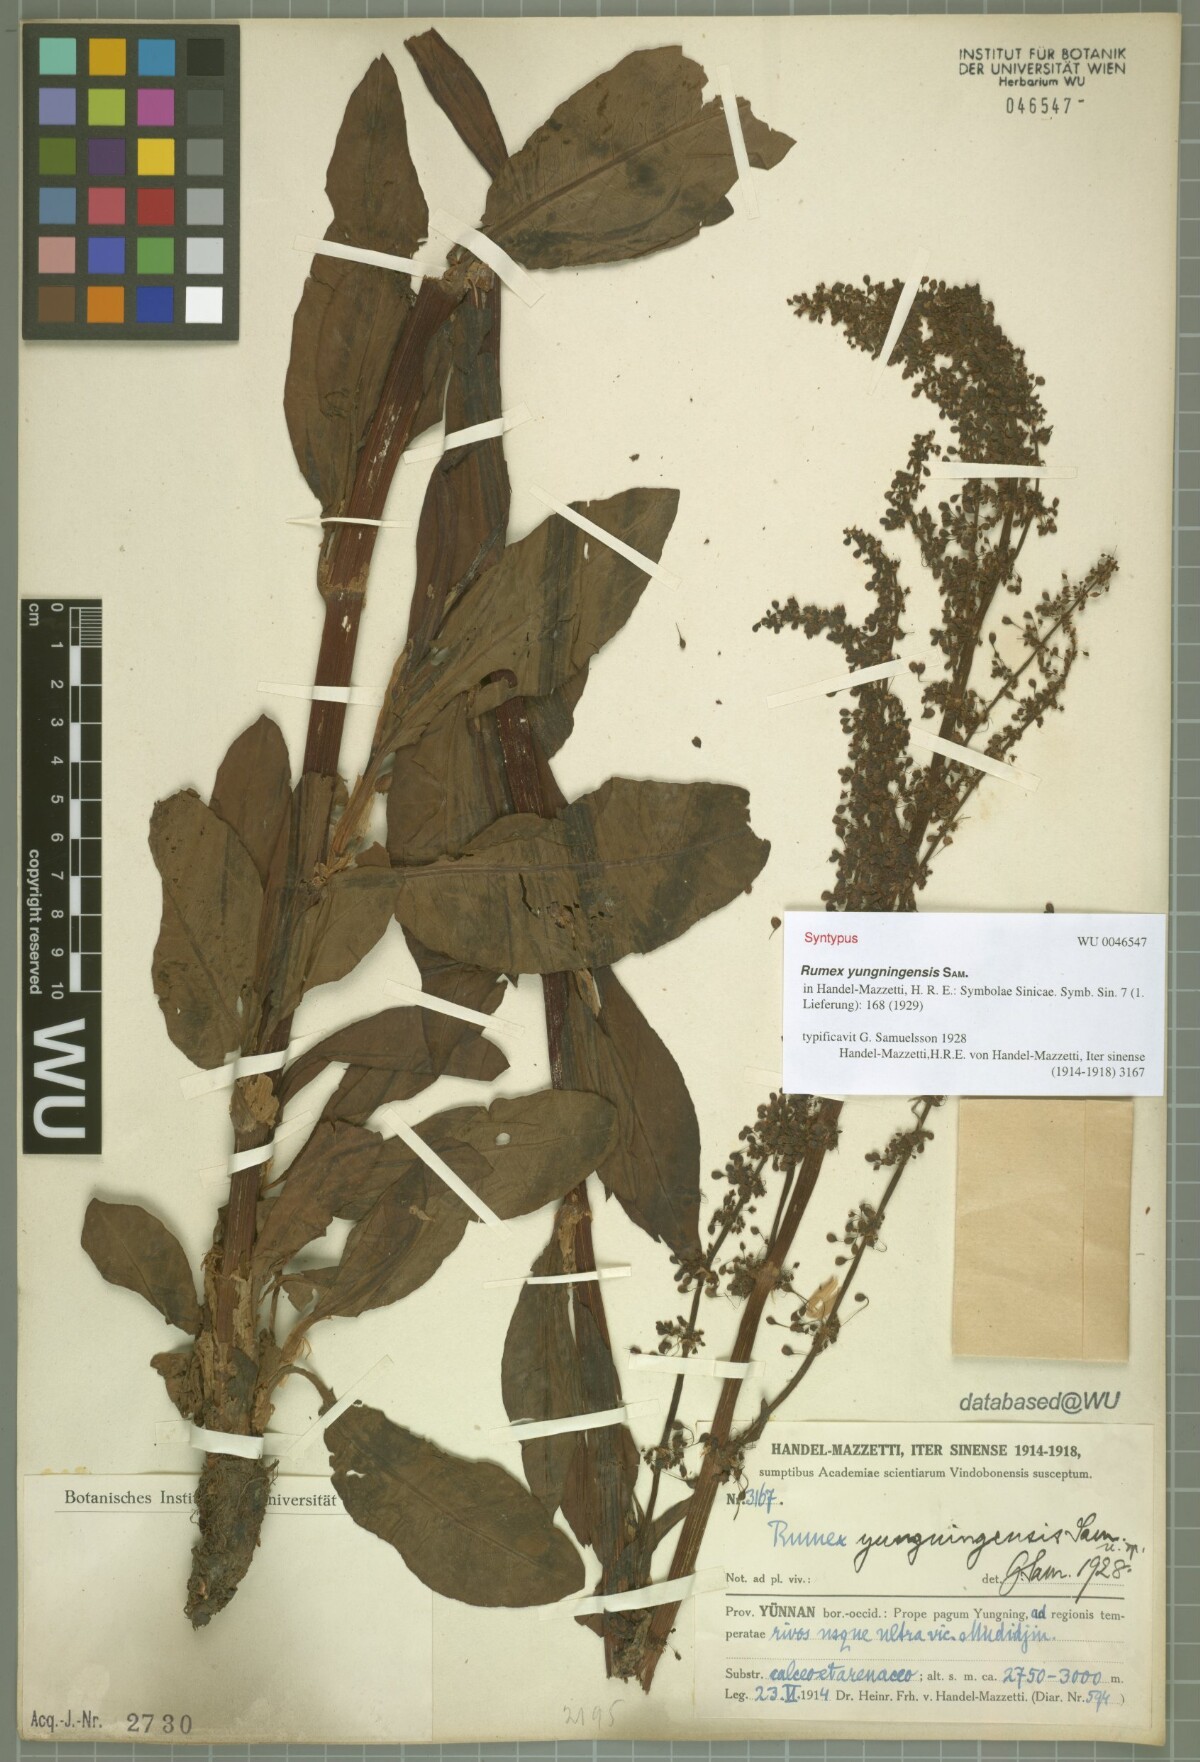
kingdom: Plantae
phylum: Tracheophyta
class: Magnoliopsida
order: Caryophyllales
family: Polygonaceae
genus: Rumex
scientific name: Rumex yungningensis
